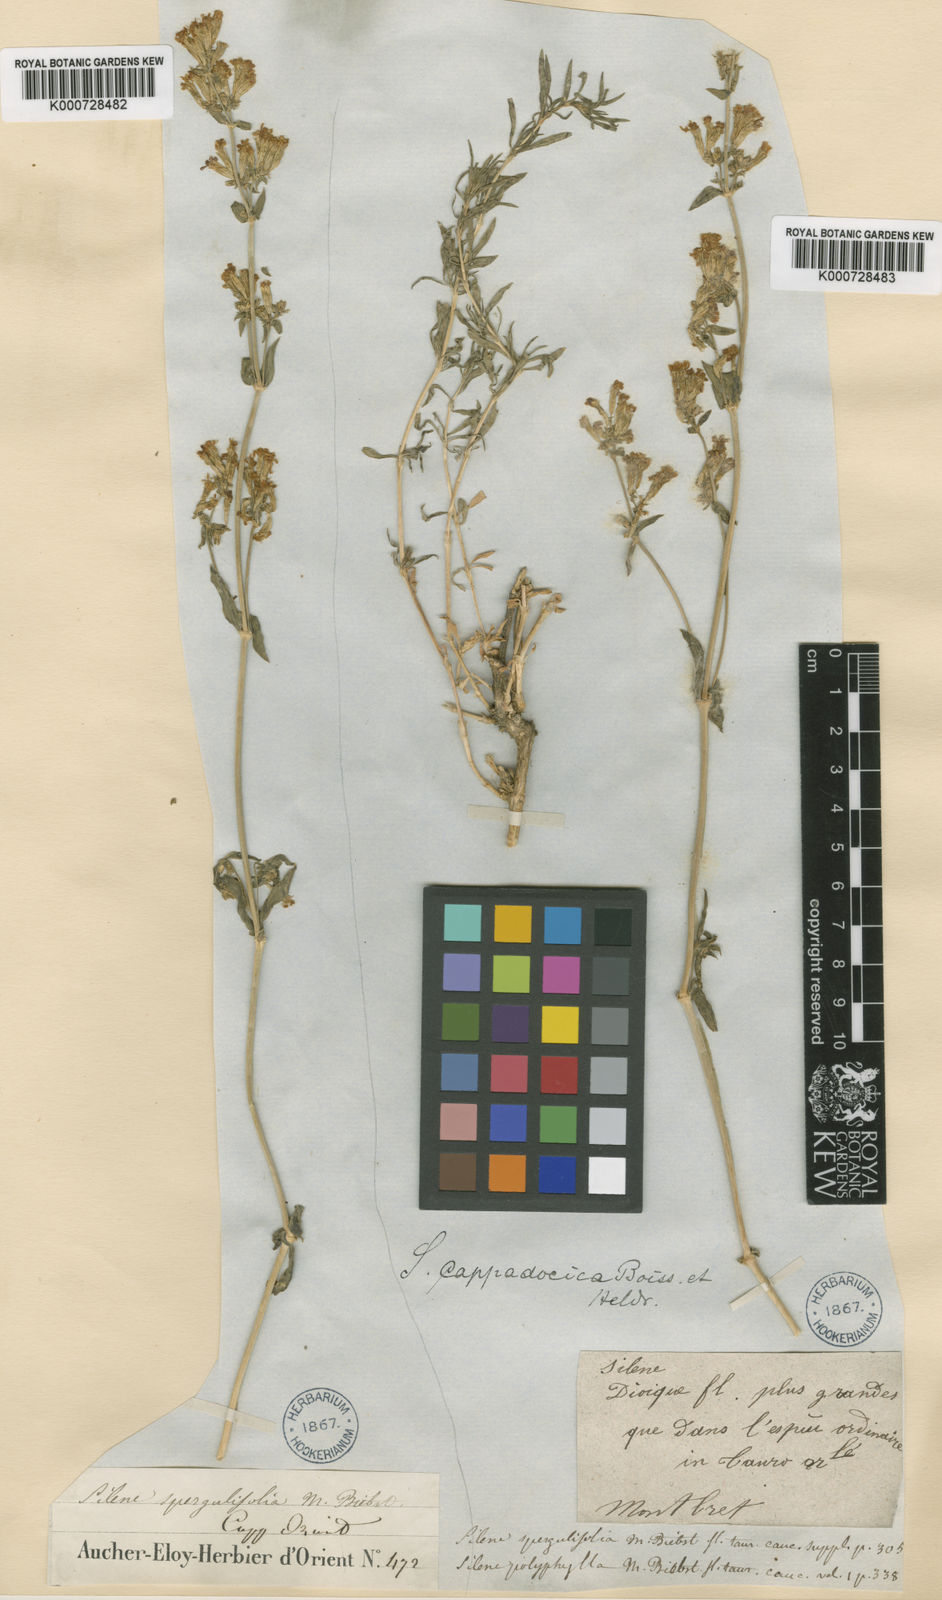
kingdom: Plantae
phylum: Tracheophyta
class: Magnoliopsida
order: Caryophyllales
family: Caryophyllaceae
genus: Silene
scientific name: Silene cappadocica
